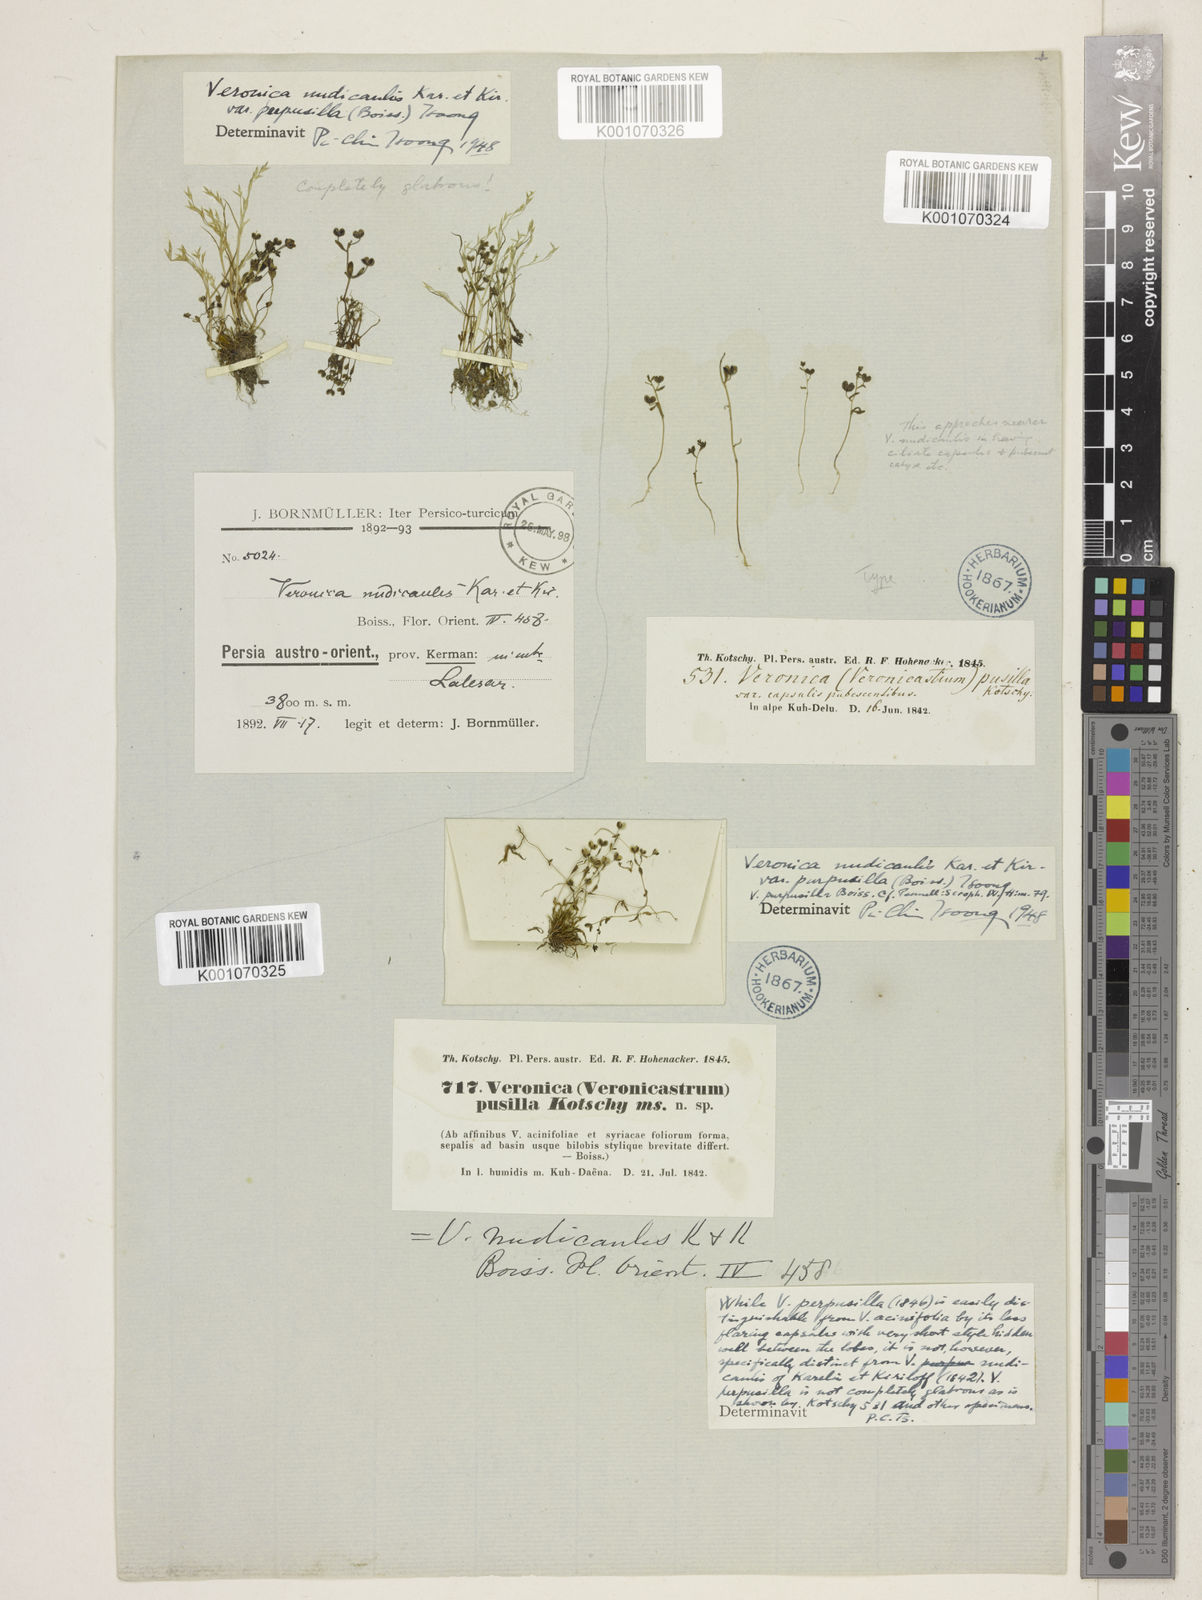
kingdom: Plantae
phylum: Tracheophyta
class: Magnoliopsida
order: Lamiales
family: Plantaginaceae
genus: Veronica
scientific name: Veronica
